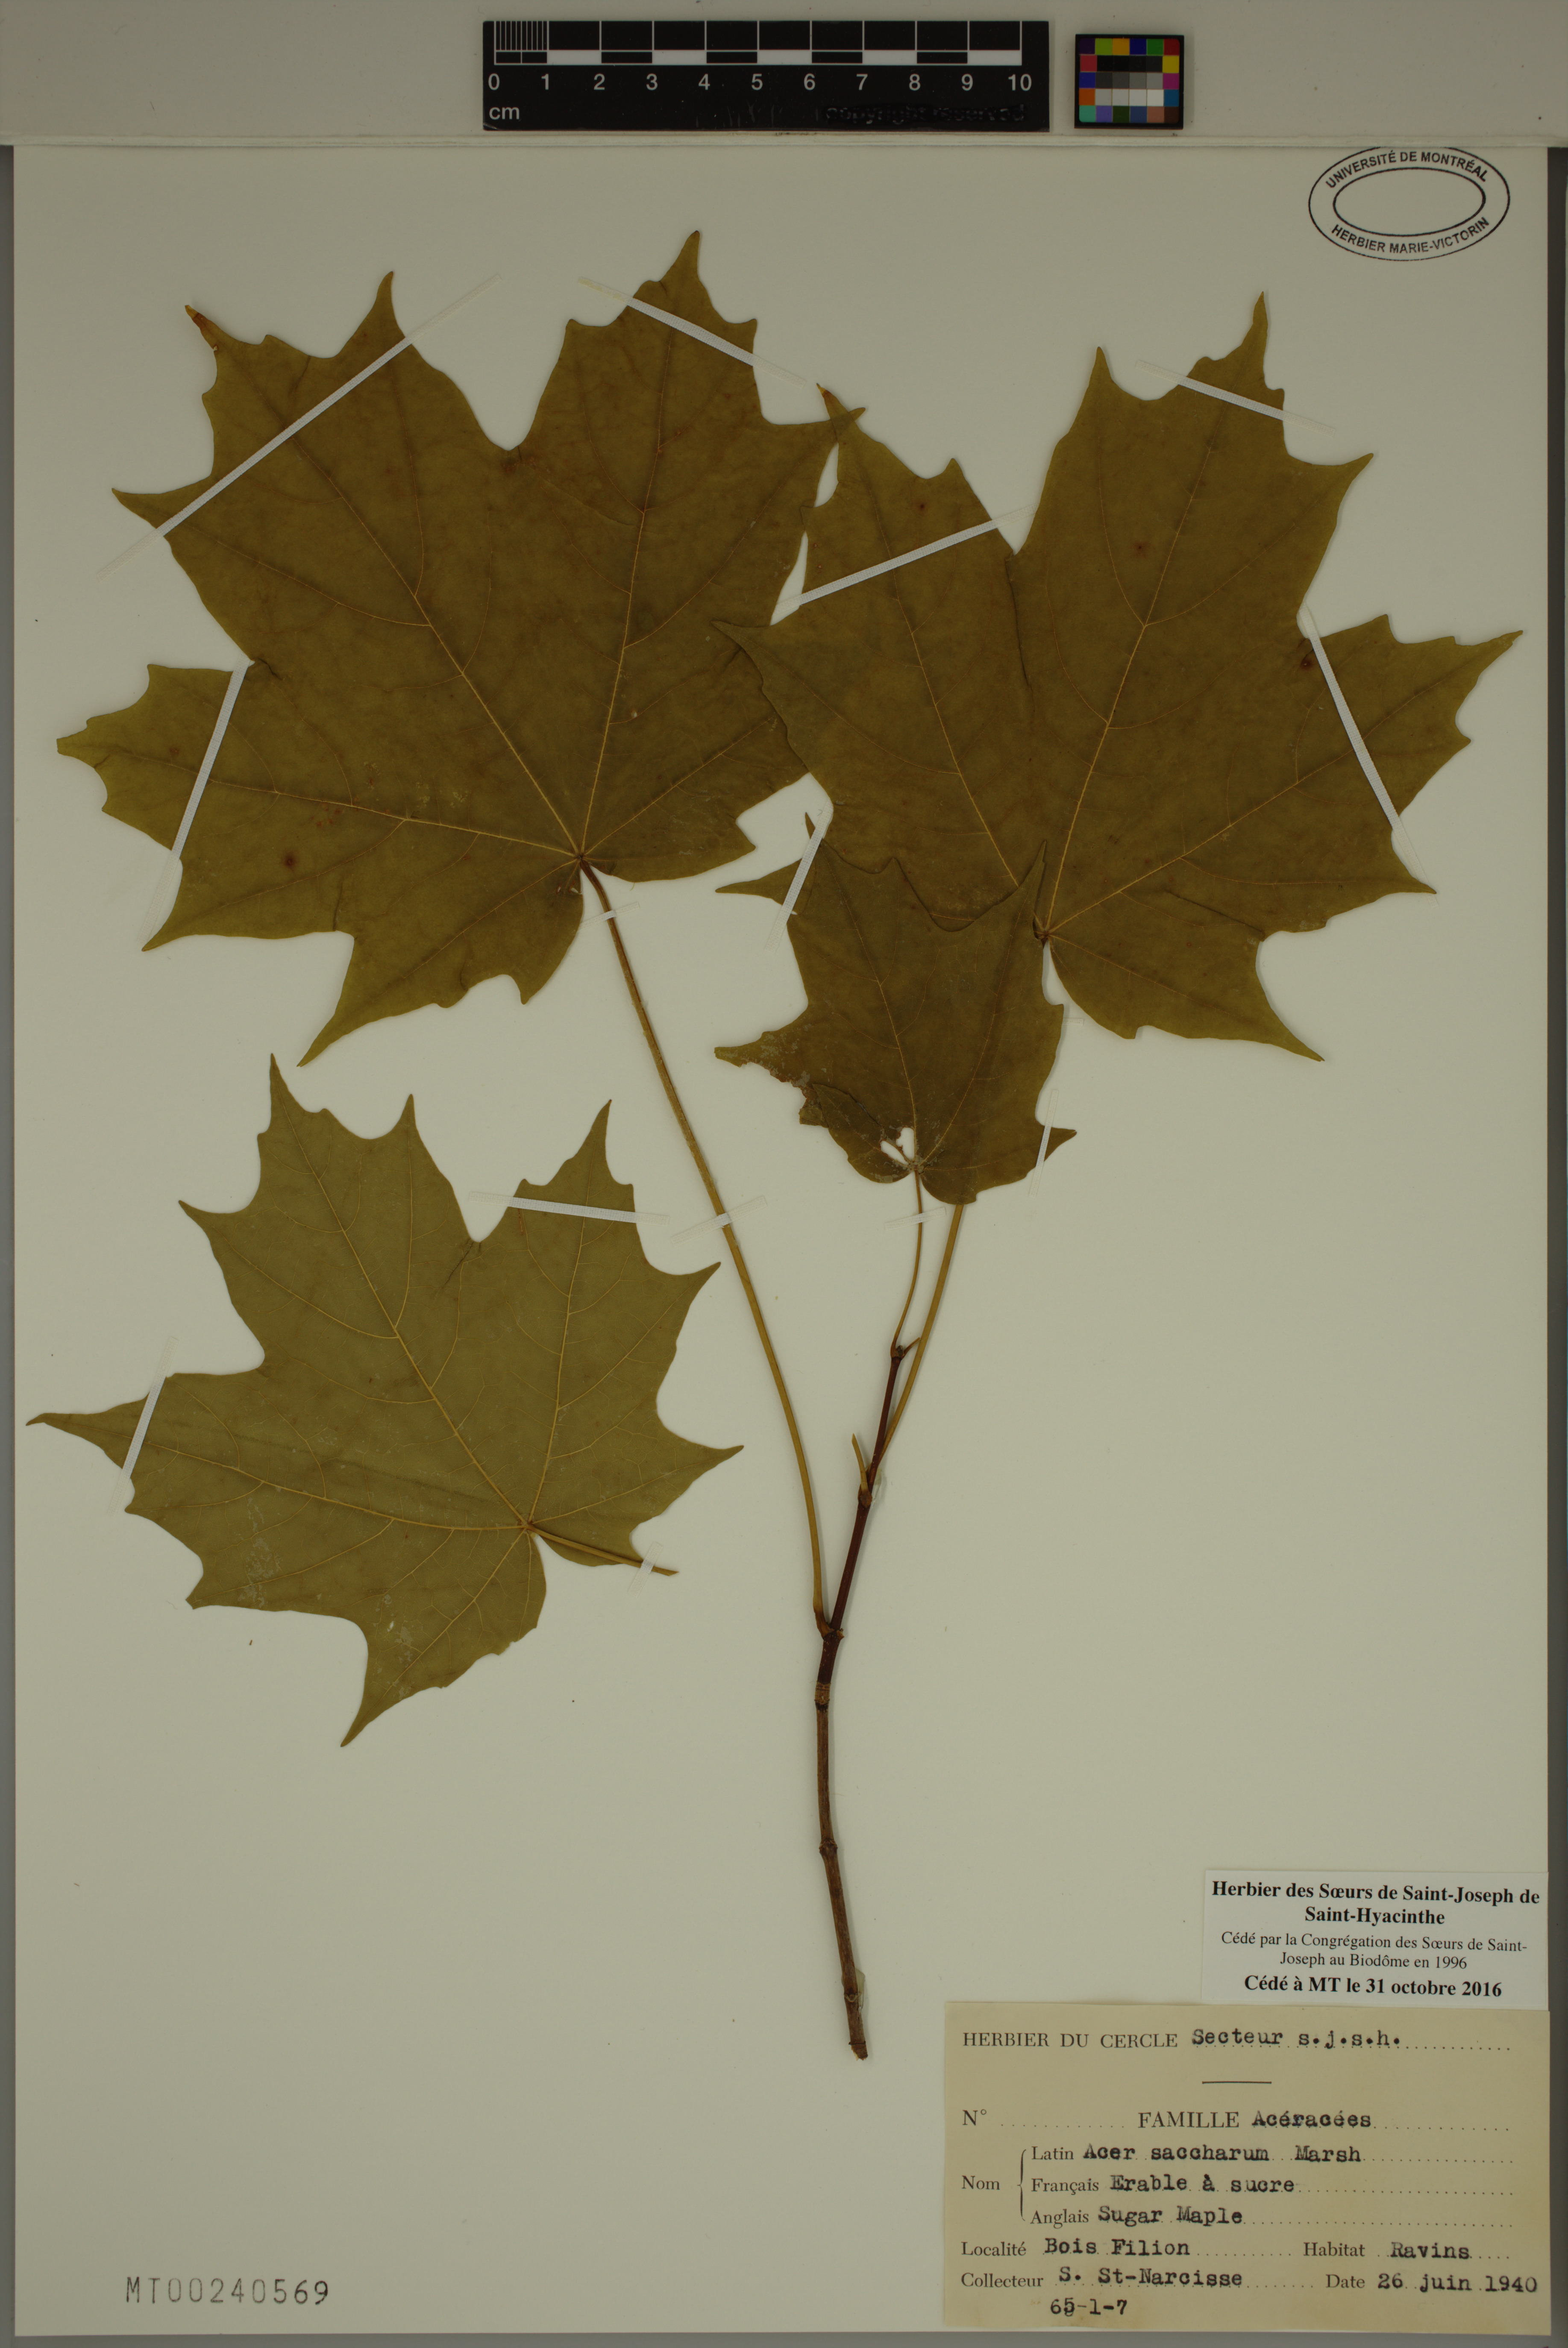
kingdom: Plantae
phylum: Tracheophyta
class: Magnoliopsida
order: Sapindales
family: Sapindaceae
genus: Acer
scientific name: Acer saccharum
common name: Sugar maple
